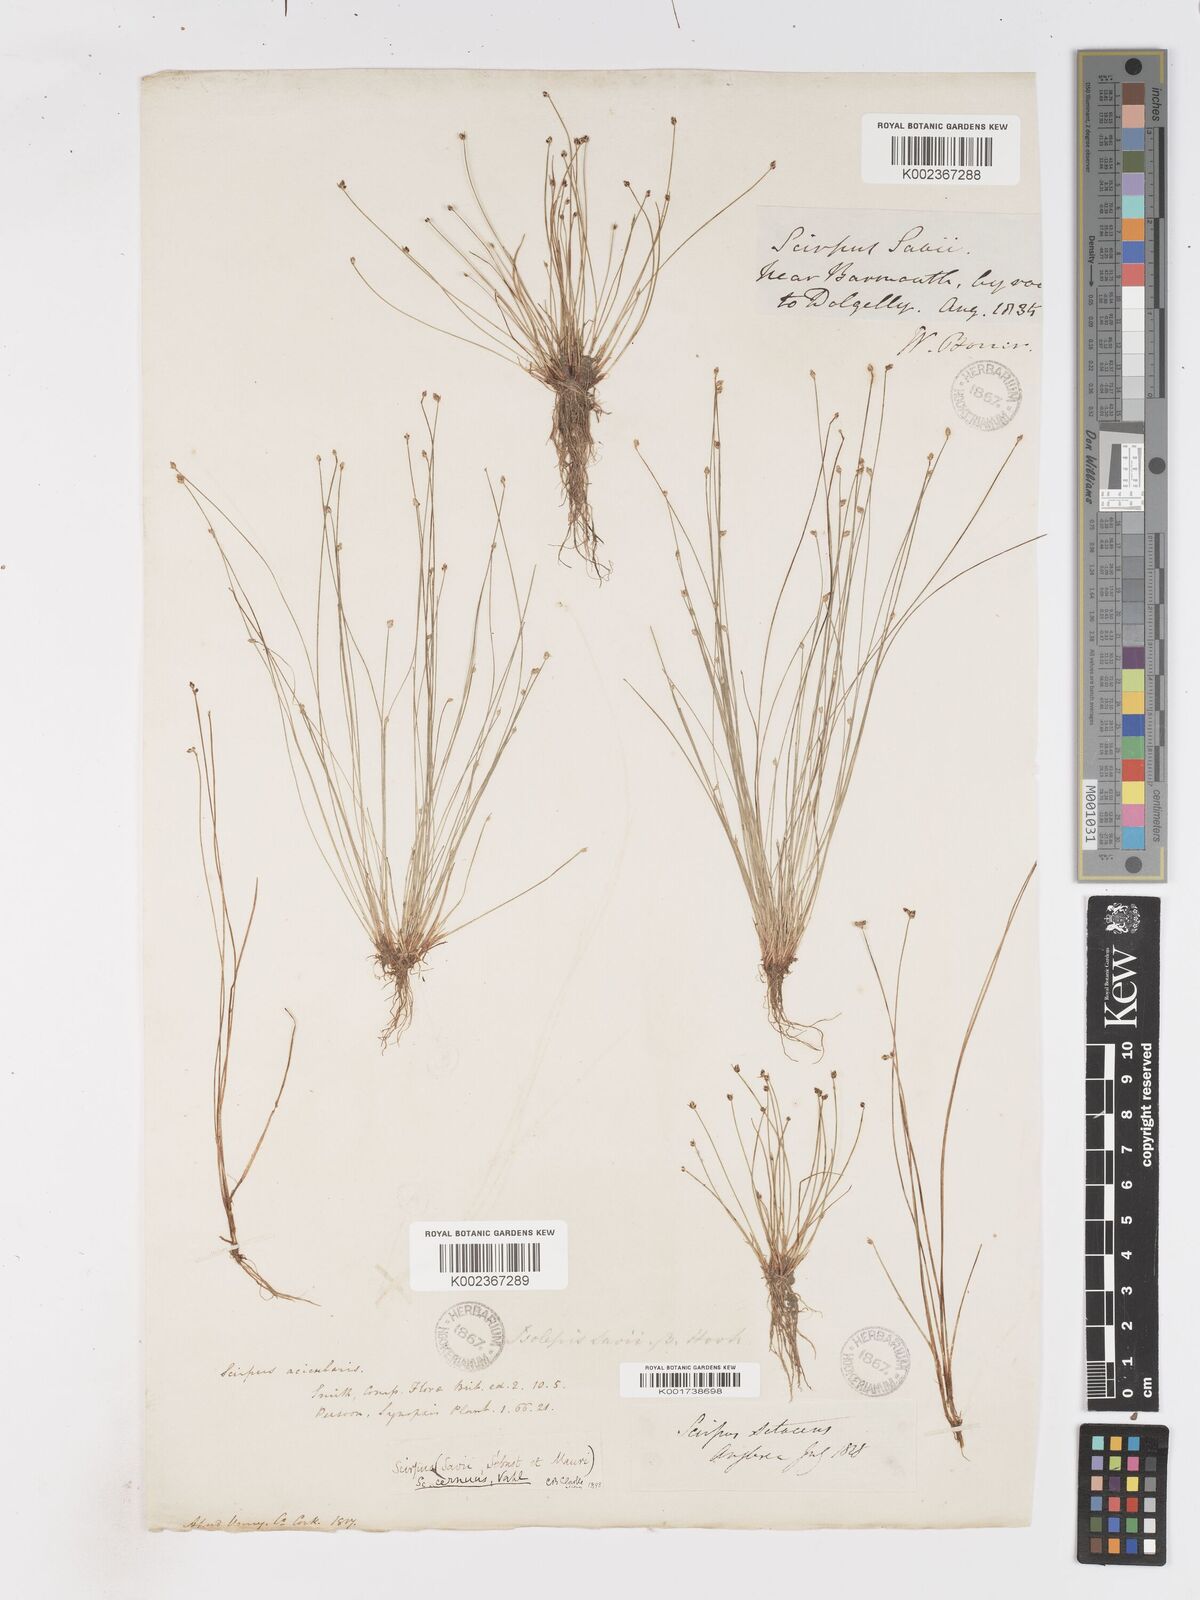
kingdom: Plantae
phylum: Tracheophyta
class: Liliopsida
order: Poales
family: Cyperaceae
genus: Isolepis
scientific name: Isolepis cernua
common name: Slender club-rush
